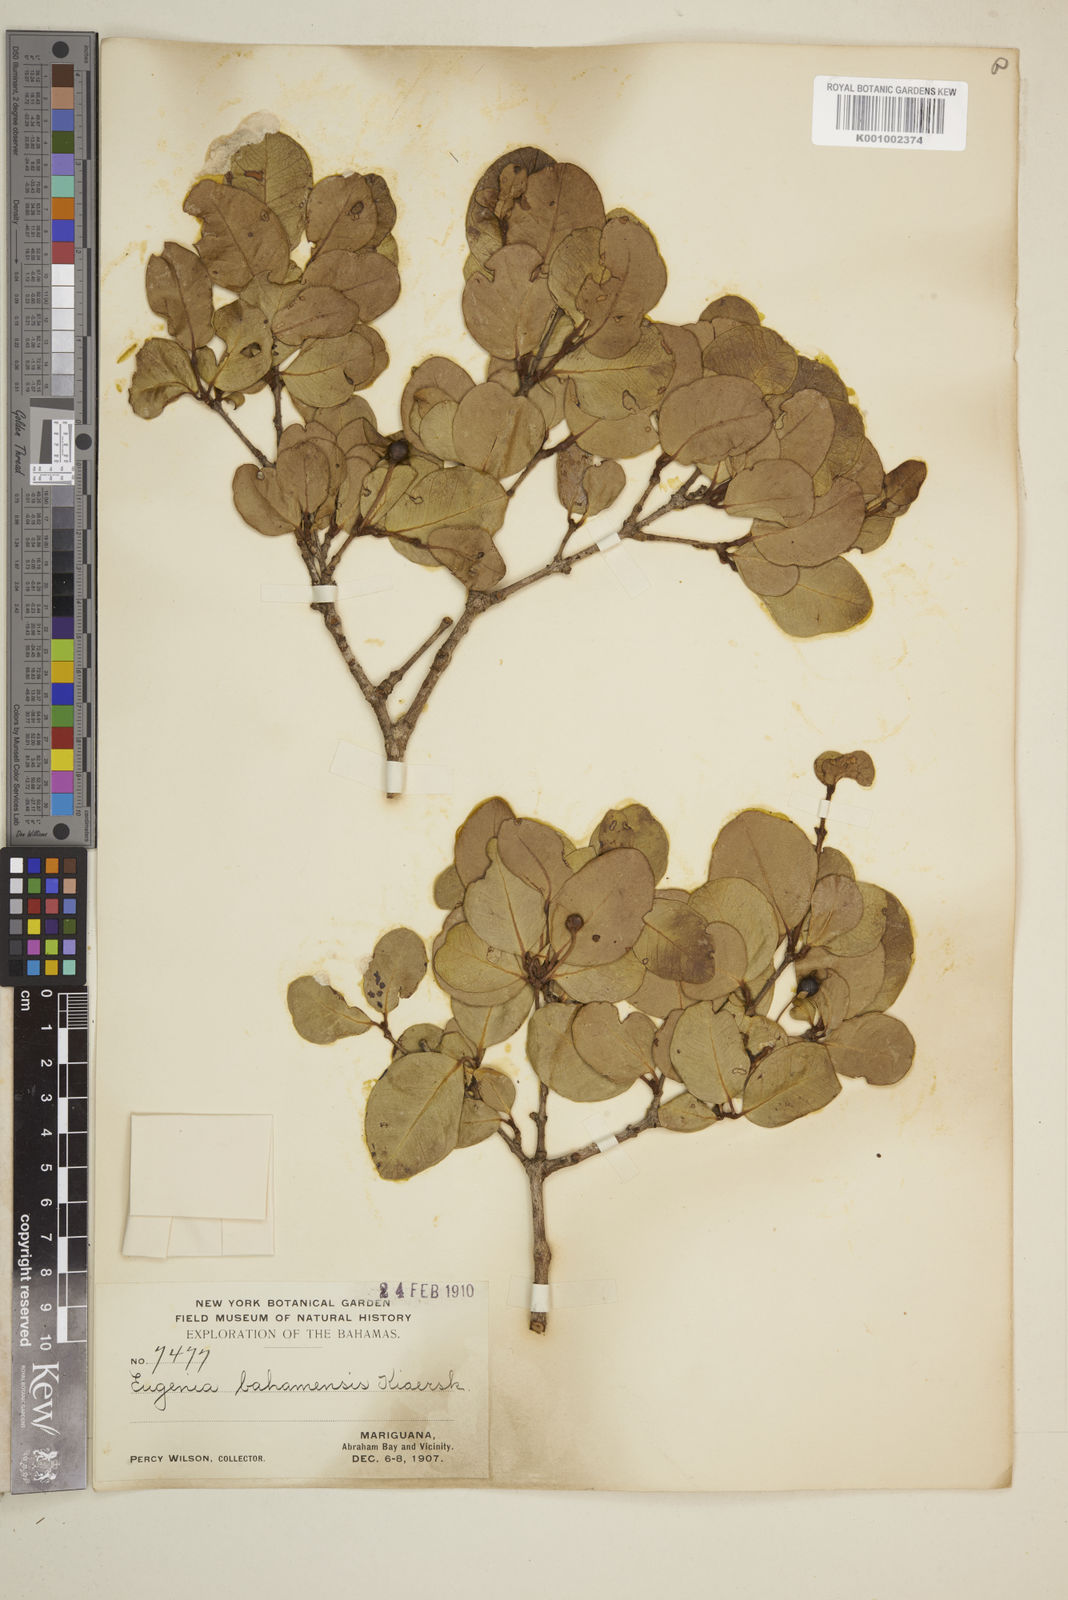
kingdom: Plantae
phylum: Tracheophyta
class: Magnoliopsida
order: Myrtales
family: Myrtaceae
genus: Mosiera
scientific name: Mosiera longipes
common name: Bahama stopper
